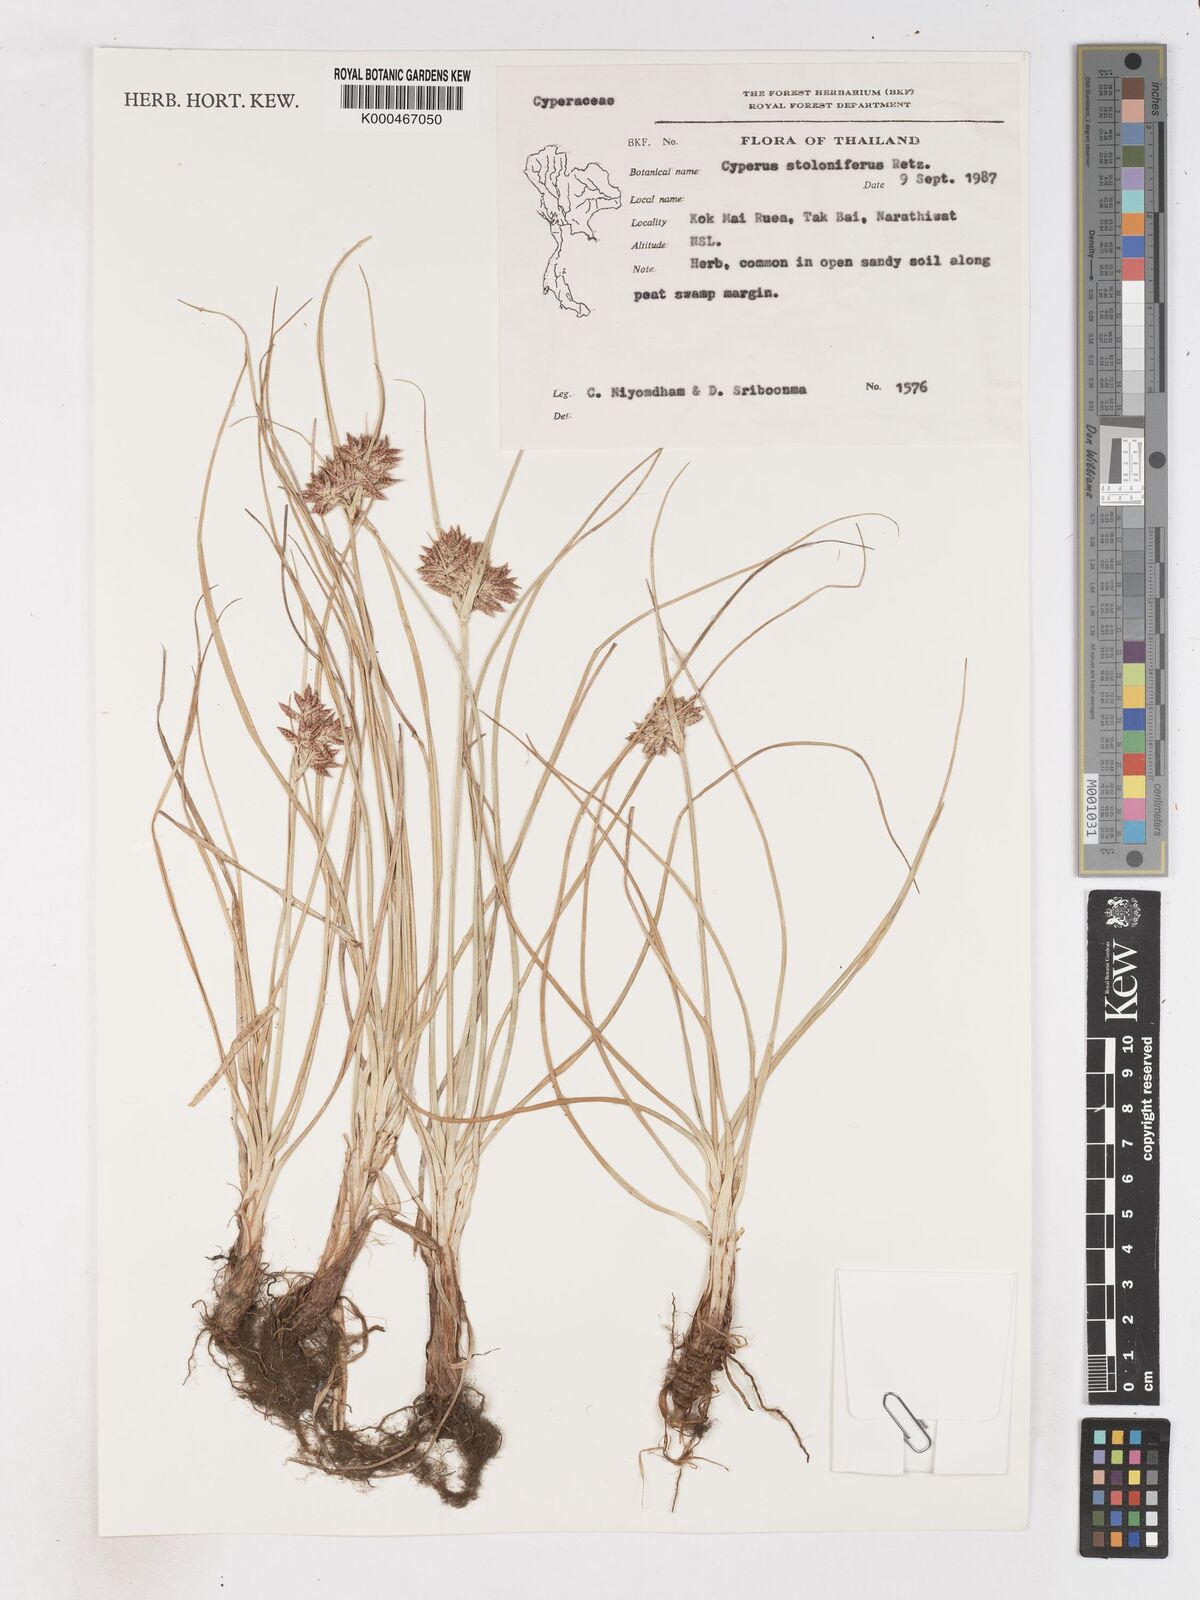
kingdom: Plantae
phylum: Tracheophyta
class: Liliopsida
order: Poales
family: Cyperaceae
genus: Cyperus
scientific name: Cyperus
